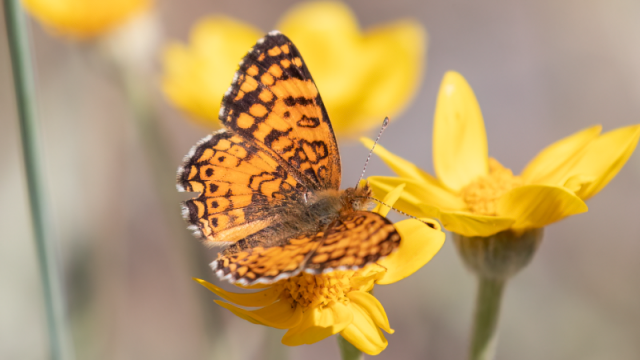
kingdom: Animalia
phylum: Arthropoda
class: Insecta
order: Lepidoptera
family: Nymphalidae
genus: Eresia
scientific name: Eresia aveyrona
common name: Mylitta Crescent
